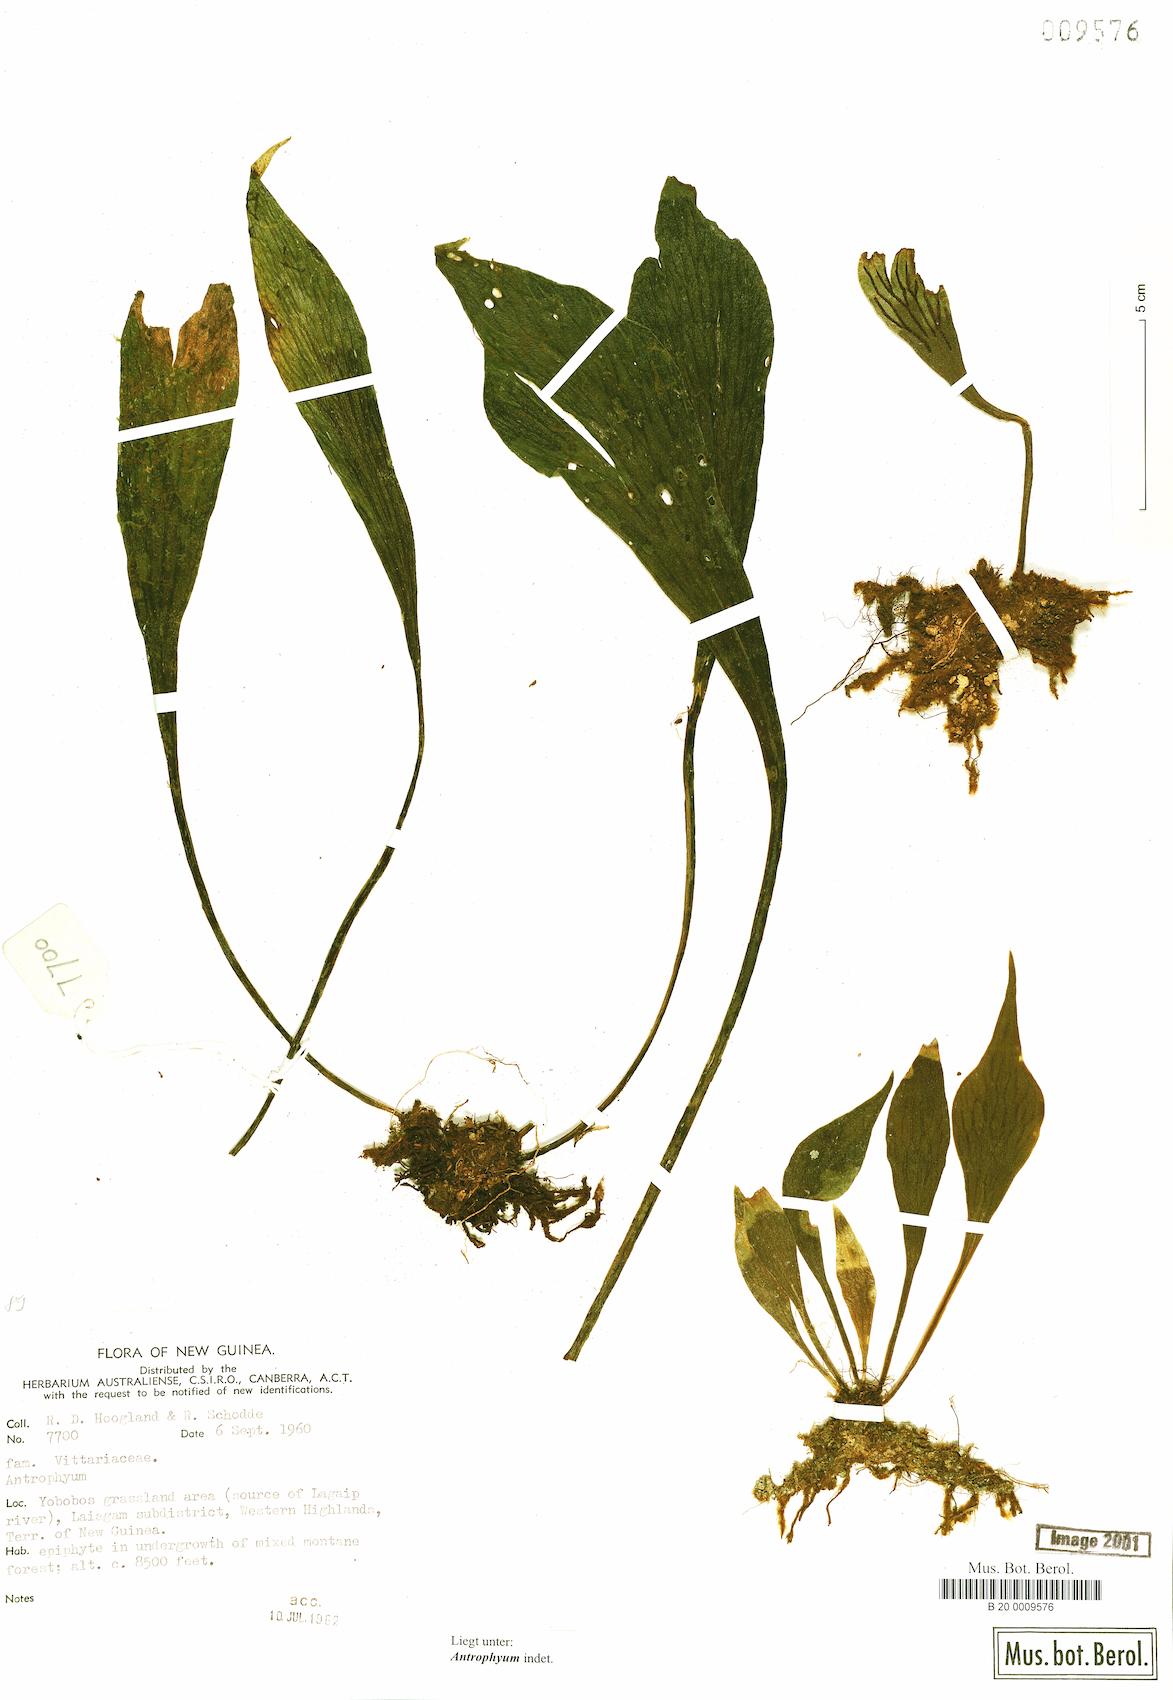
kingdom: Plantae
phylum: Tracheophyta
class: Polypodiopsida
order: Polypodiales
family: Pteridaceae
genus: Antrophyum
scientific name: Antrophyum
